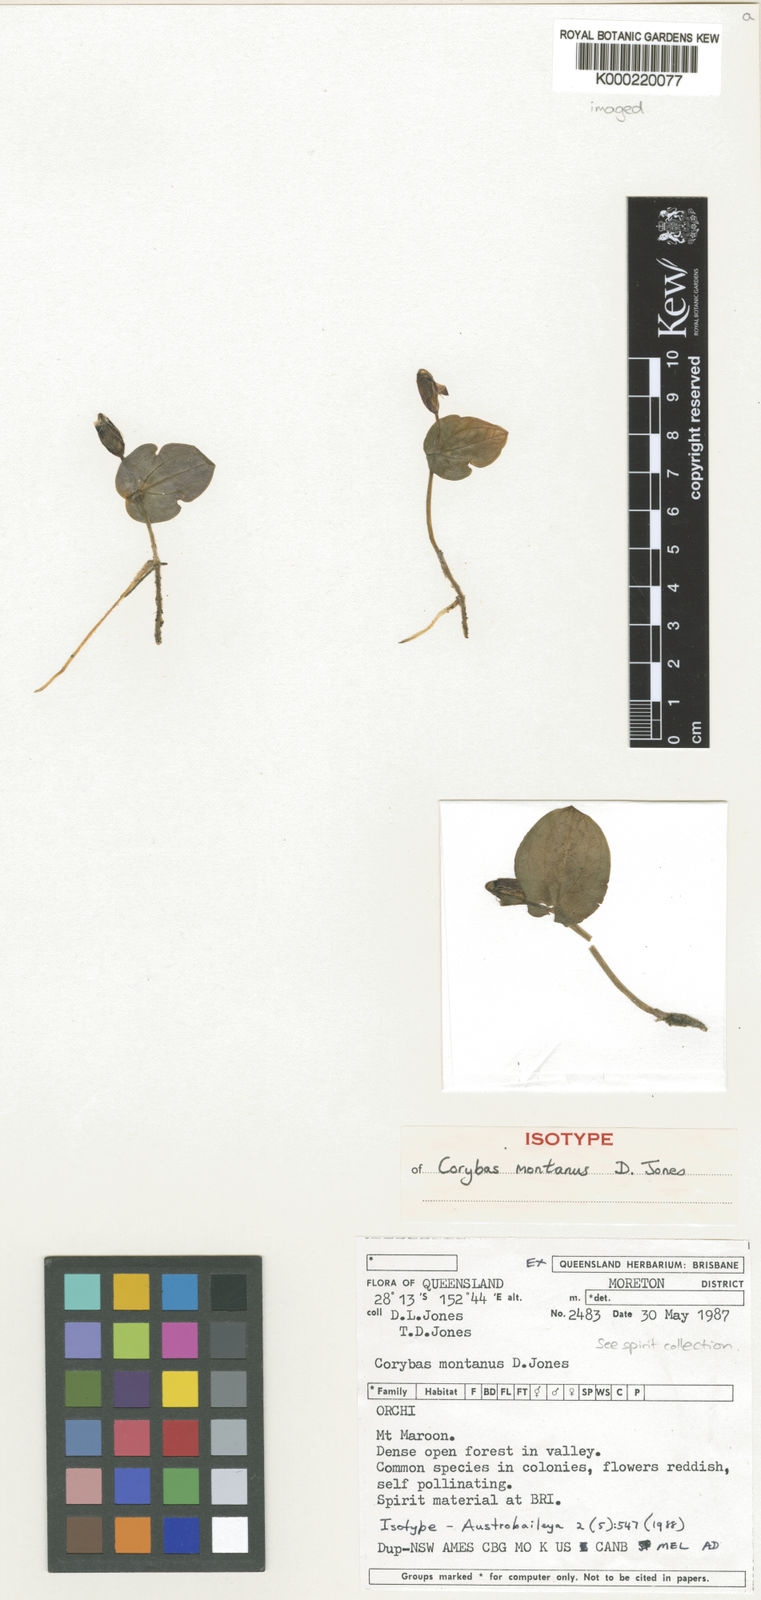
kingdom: Plantae
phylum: Tracheophyta
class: Liliopsida
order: Asparagales
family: Orchidaceae
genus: Corybas
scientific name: Corybas montanus
